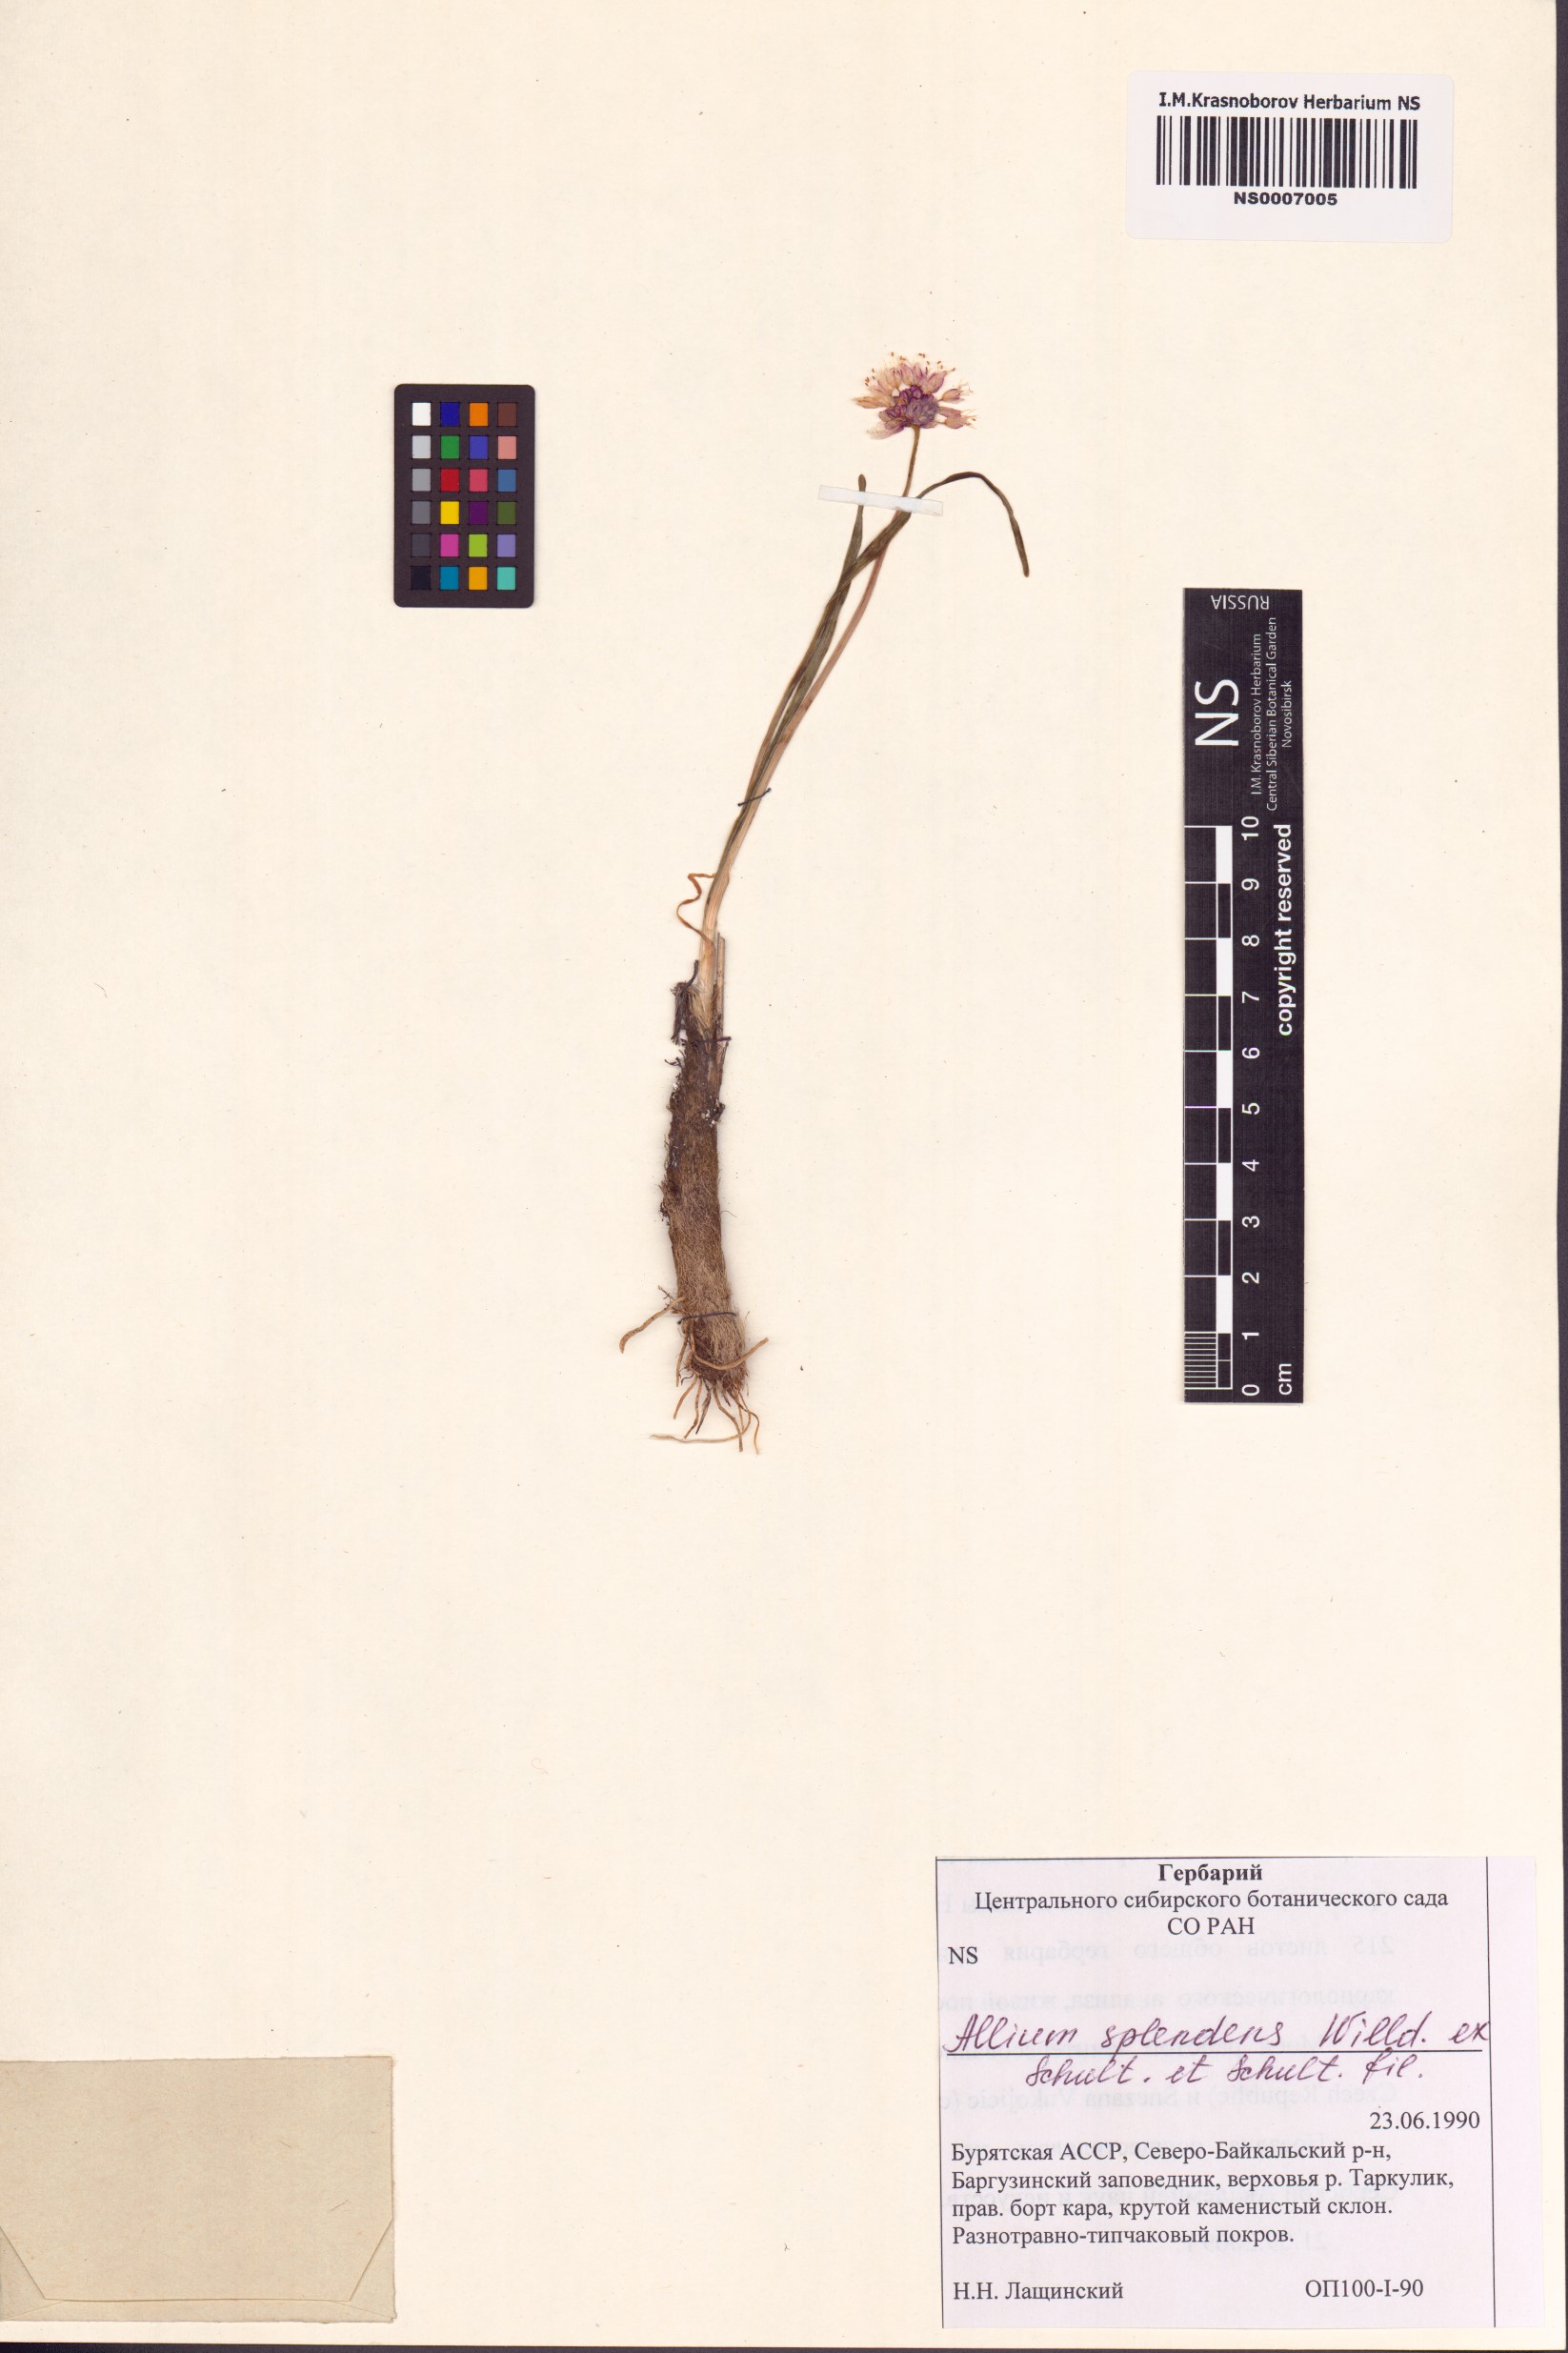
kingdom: Plantae
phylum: Tracheophyta
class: Liliopsida
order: Asparagales
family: Amaryllidaceae
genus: Allium
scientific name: Allium splendens
